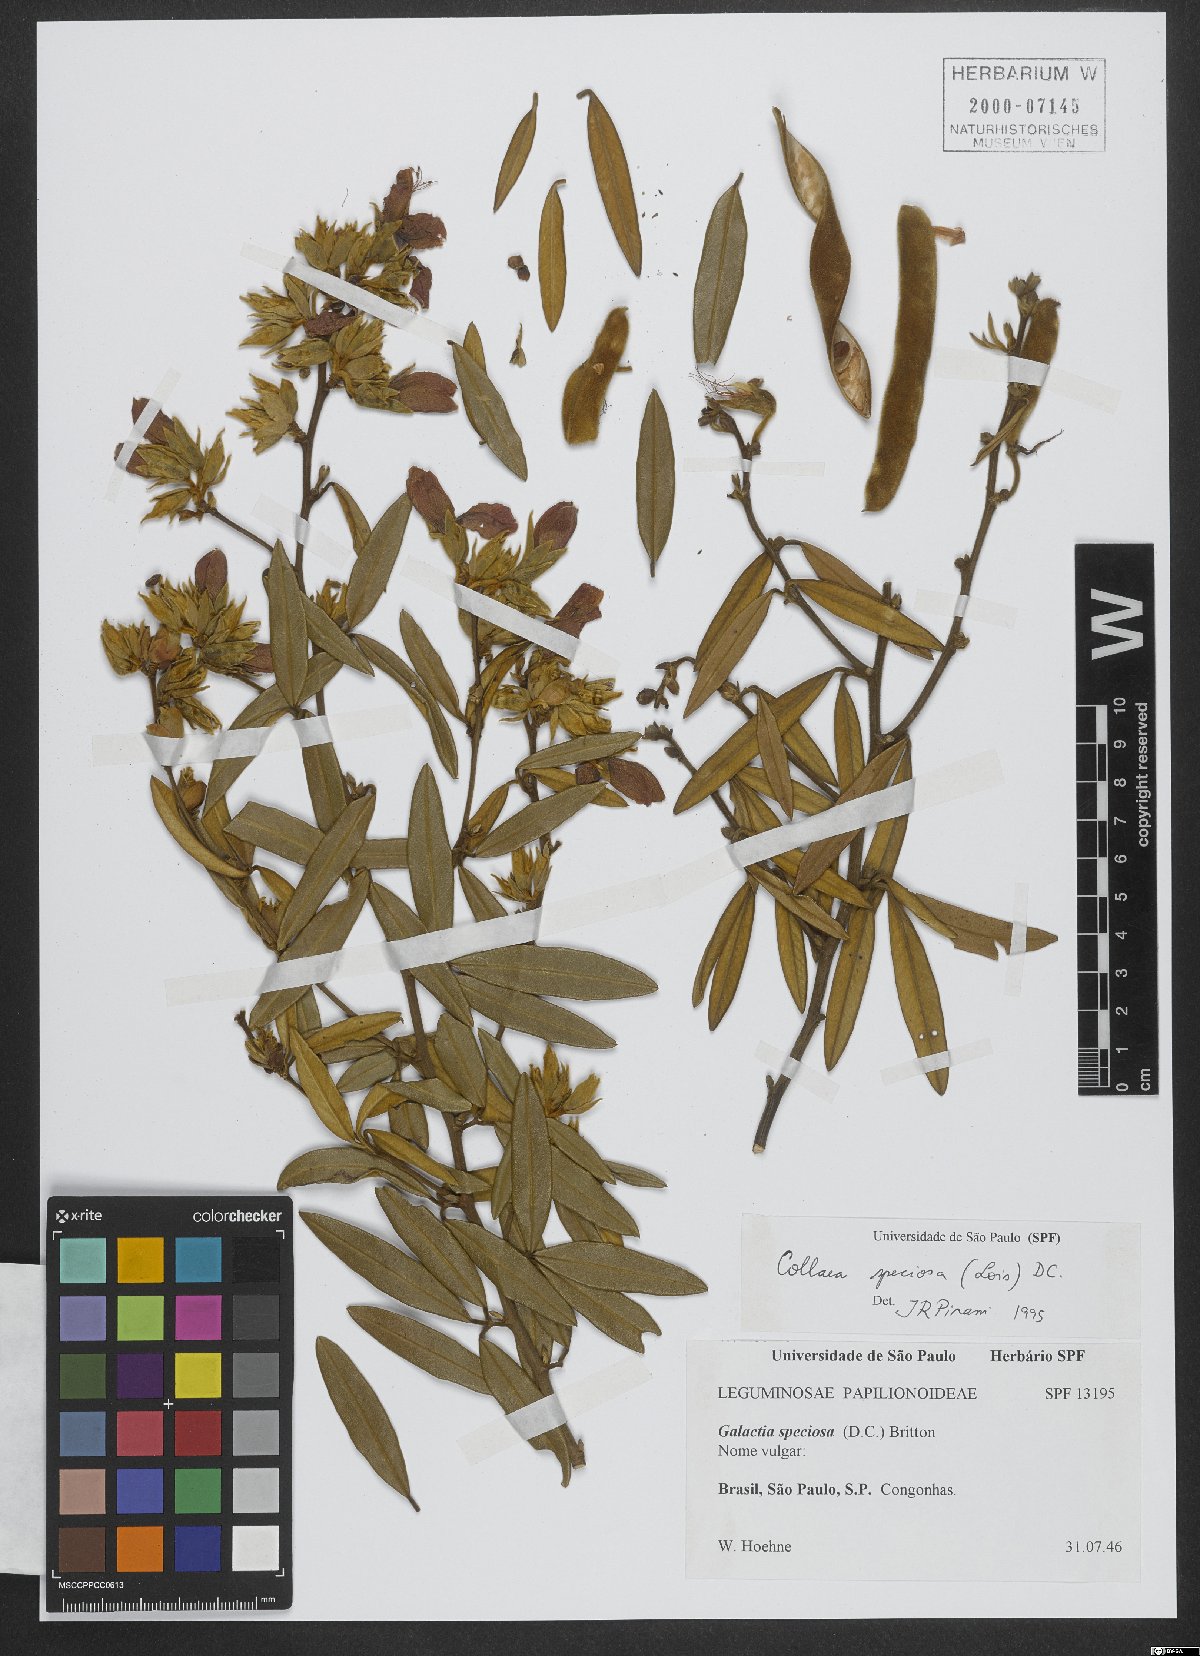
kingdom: Plantae
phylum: Tracheophyta
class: Magnoliopsida
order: Fabales
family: Fabaceae
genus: Collaea
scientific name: Collaea speciosa
